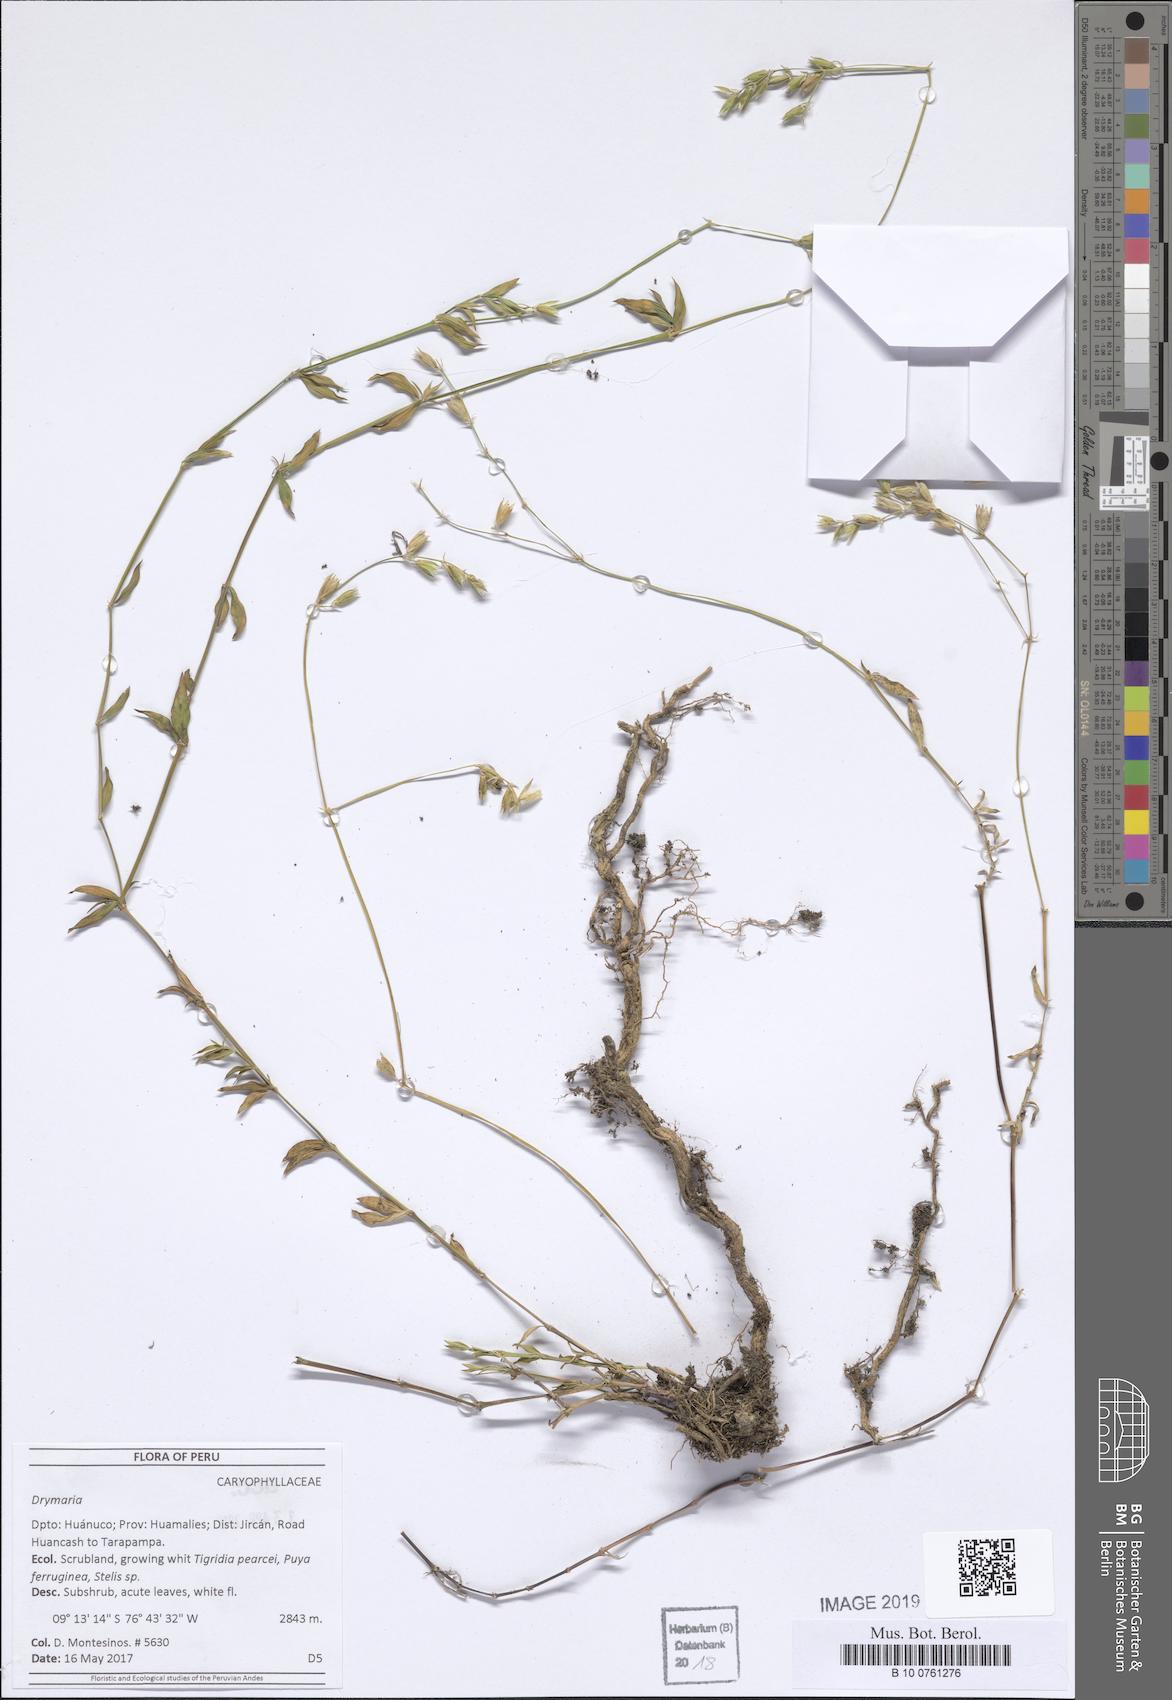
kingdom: Plantae
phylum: Tracheophyta
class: Magnoliopsida
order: Caryophyllales
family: Caryophyllaceae
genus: Drymaria
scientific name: Drymaria
